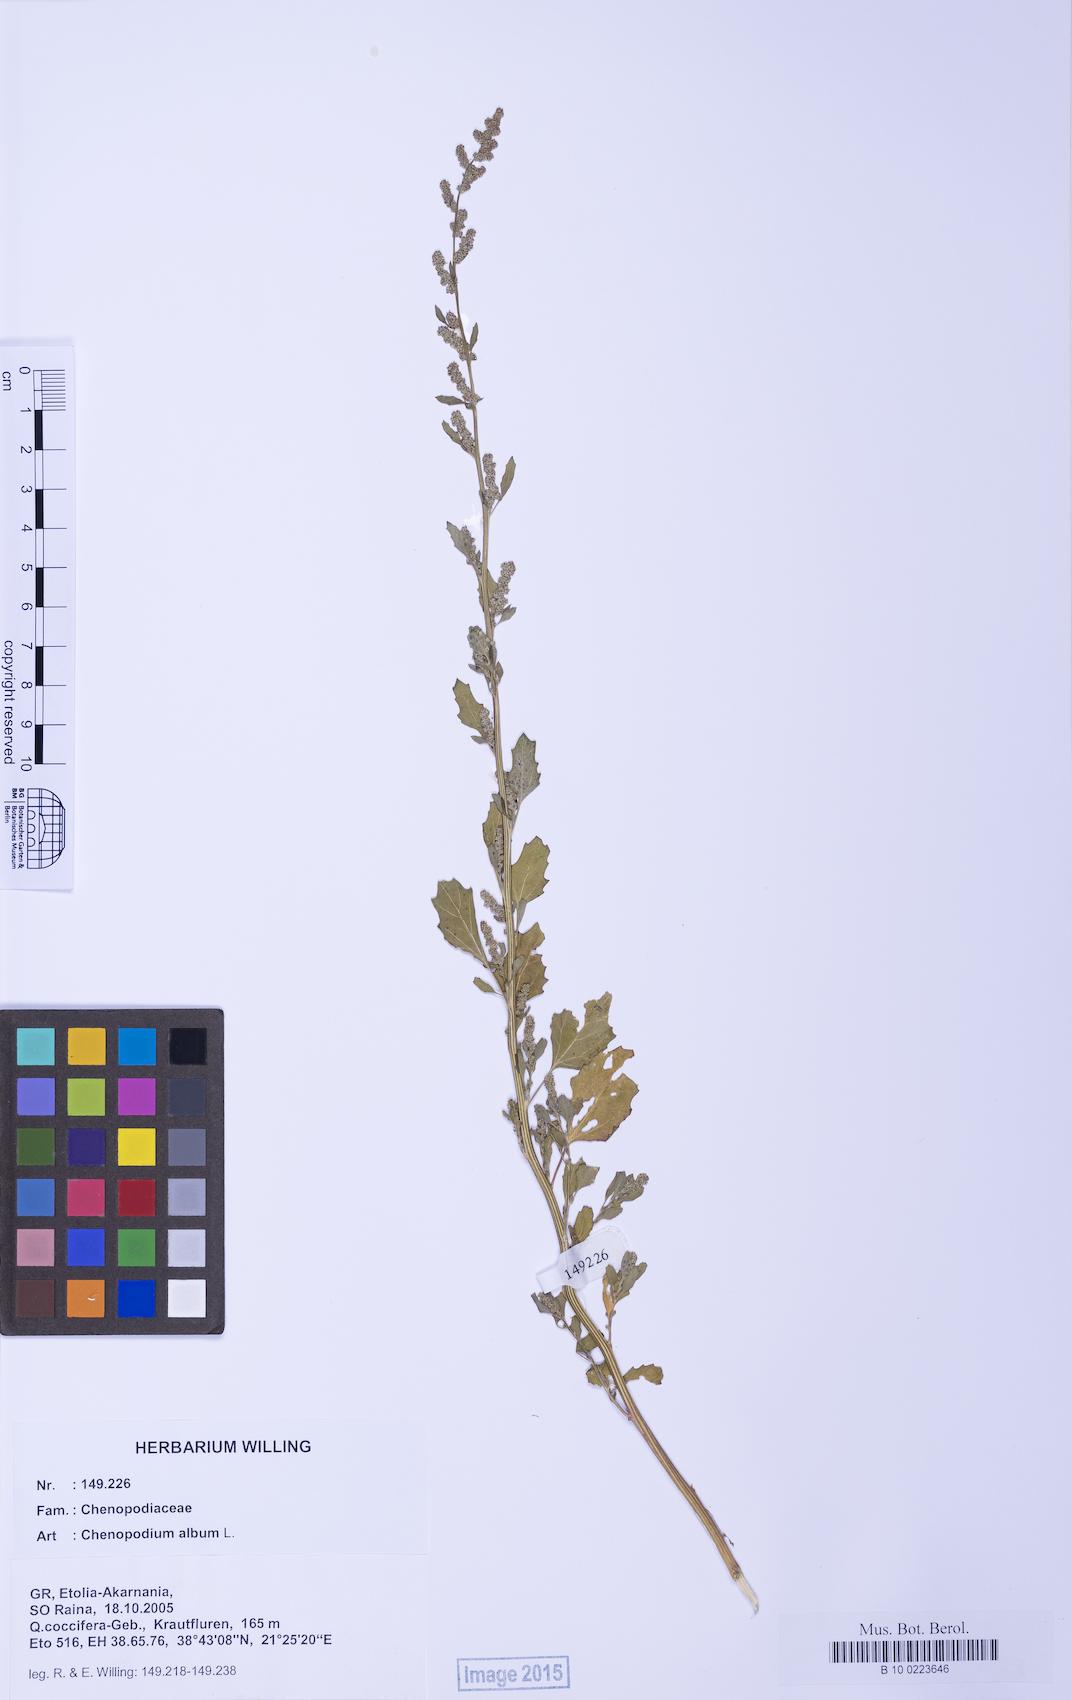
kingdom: Plantae
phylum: Tracheophyta
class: Magnoliopsida
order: Caryophyllales
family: Amaranthaceae
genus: Chenopodium
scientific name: Chenopodium album
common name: Fat-hen
